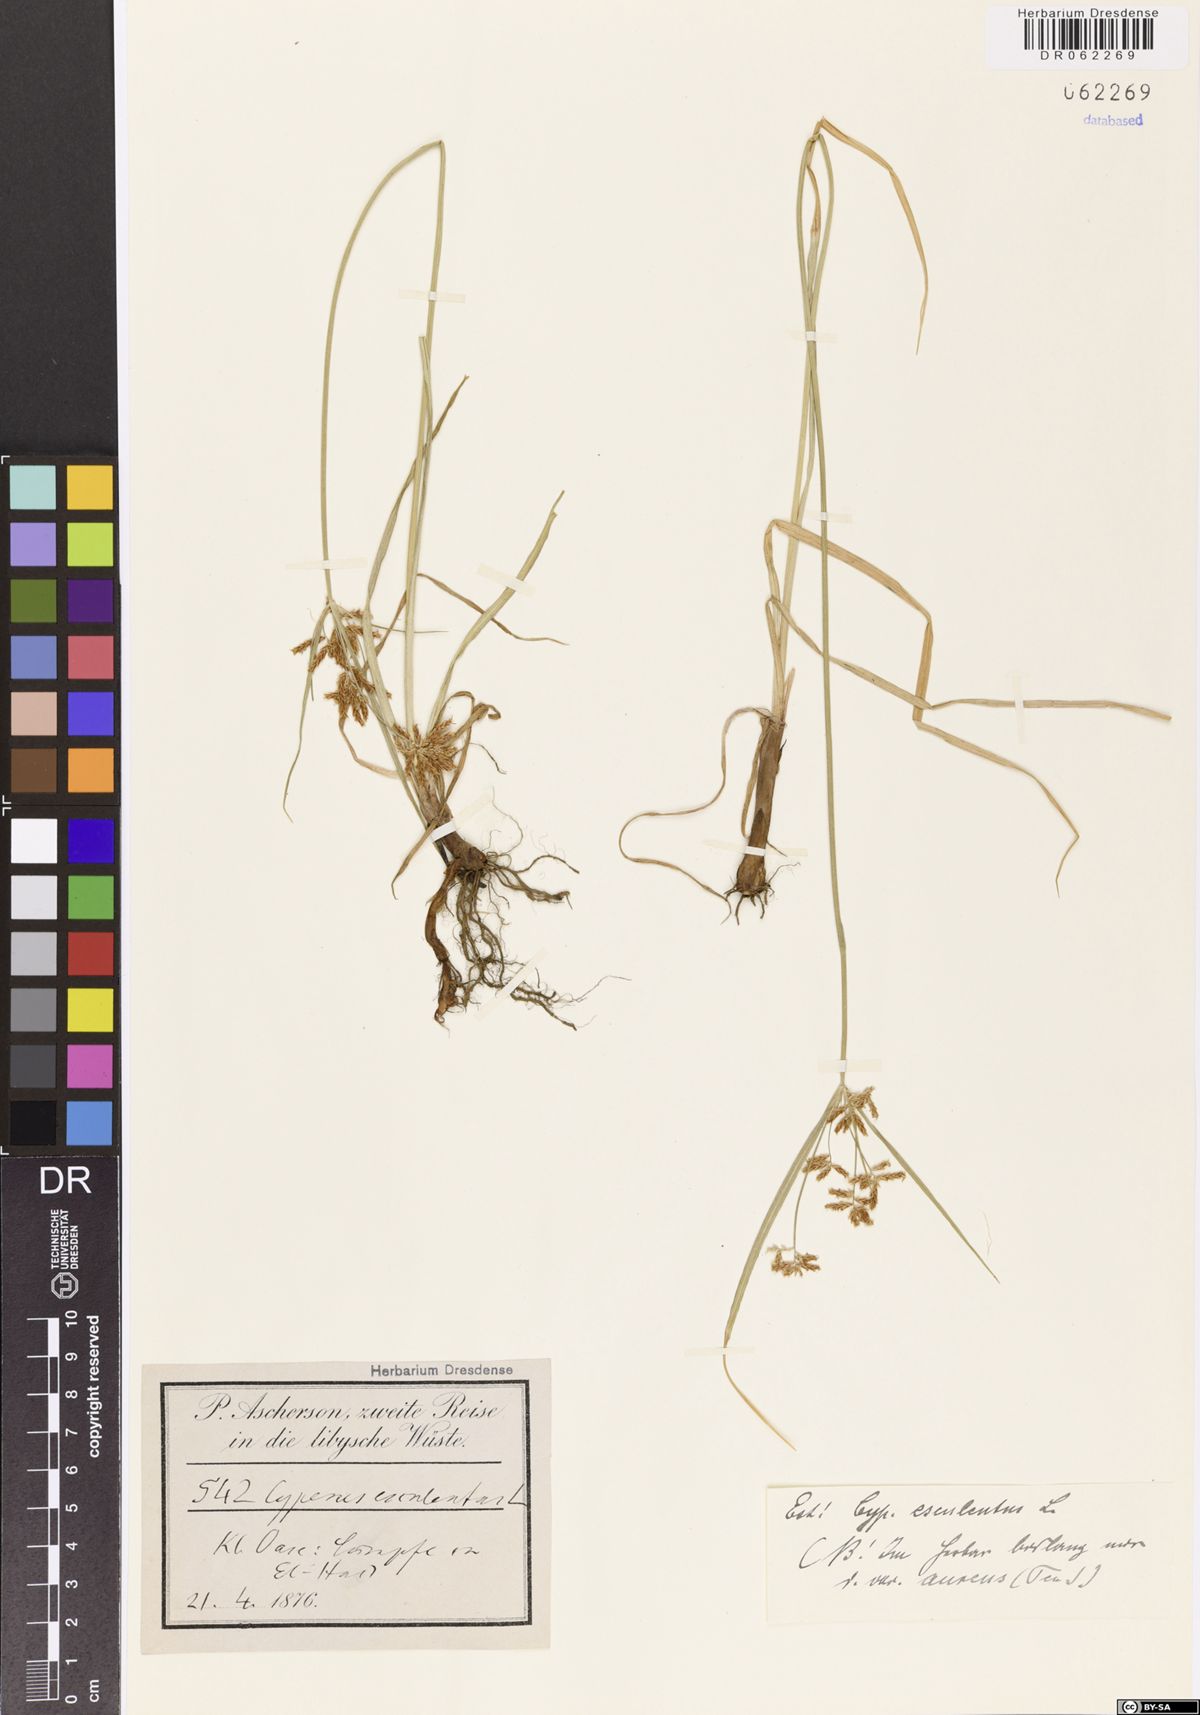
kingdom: Plantae
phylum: Tracheophyta
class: Liliopsida
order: Poales
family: Cyperaceae
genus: Cyperus
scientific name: Cyperus esculentus
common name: Yellow nutsedge
